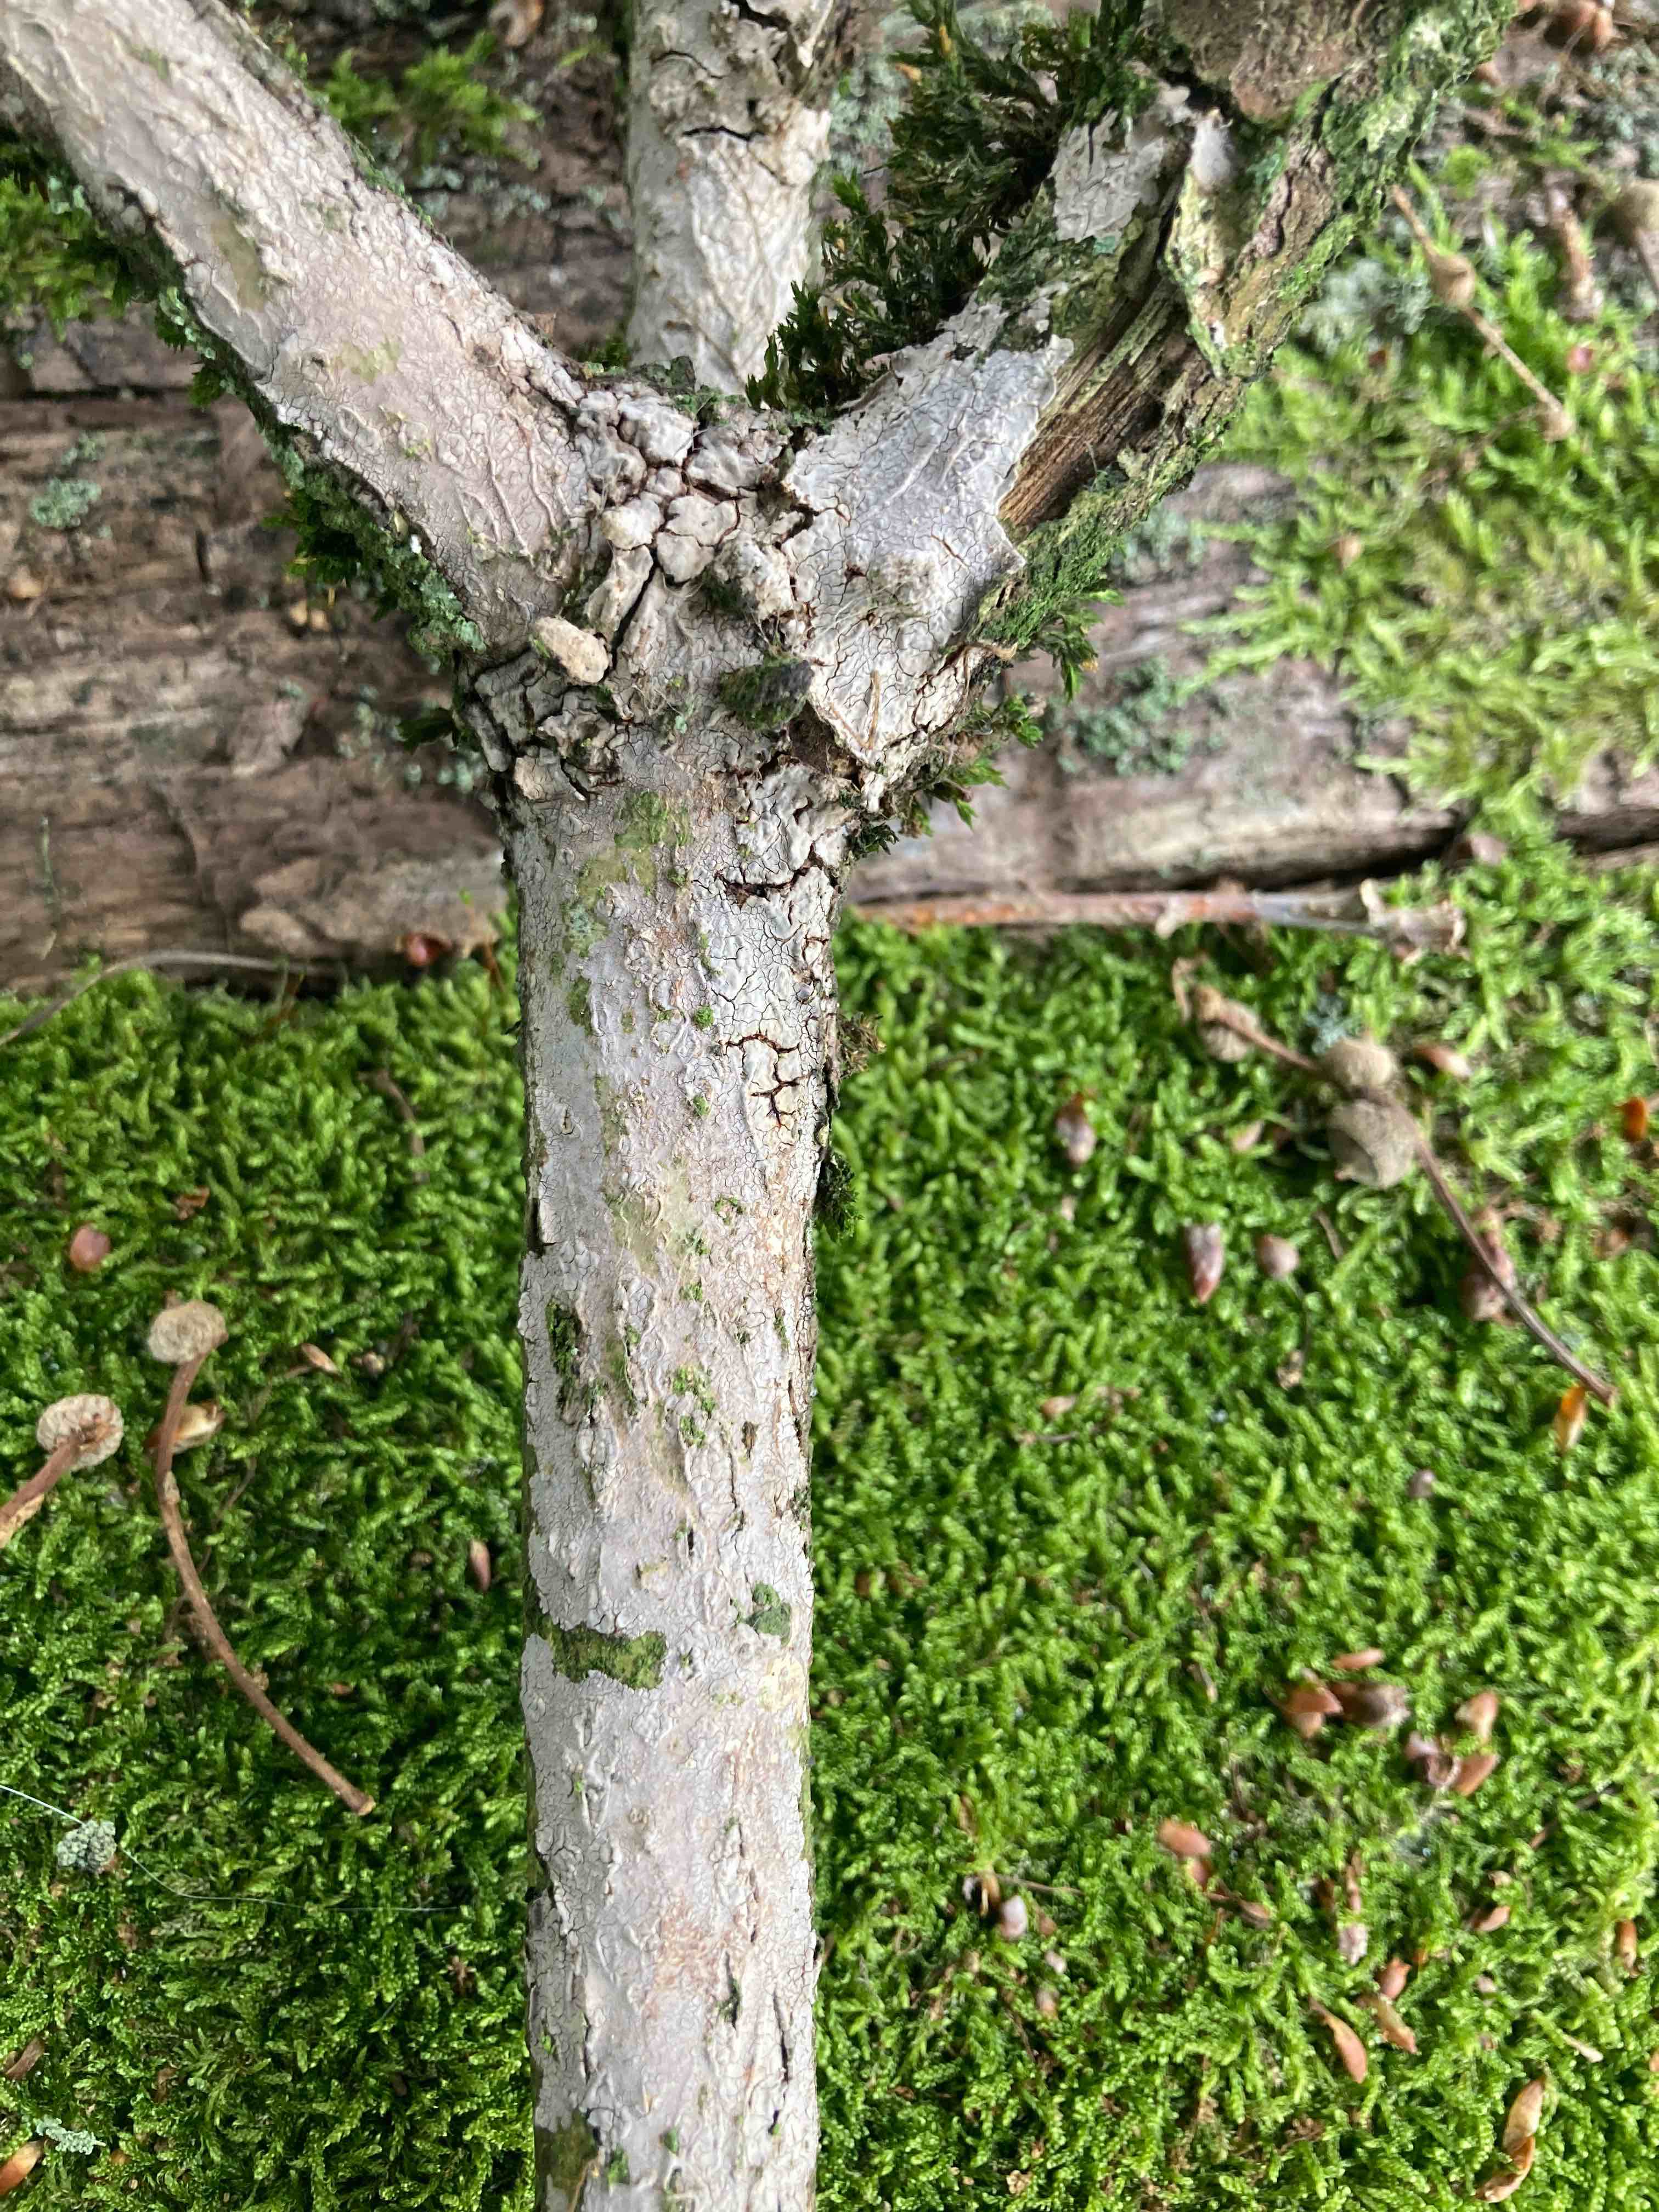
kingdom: Fungi
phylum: Basidiomycota
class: Agaricomycetes
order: Russulales
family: Peniophoraceae
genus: Peniophora
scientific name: Peniophora cinerea
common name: grå voksskind
